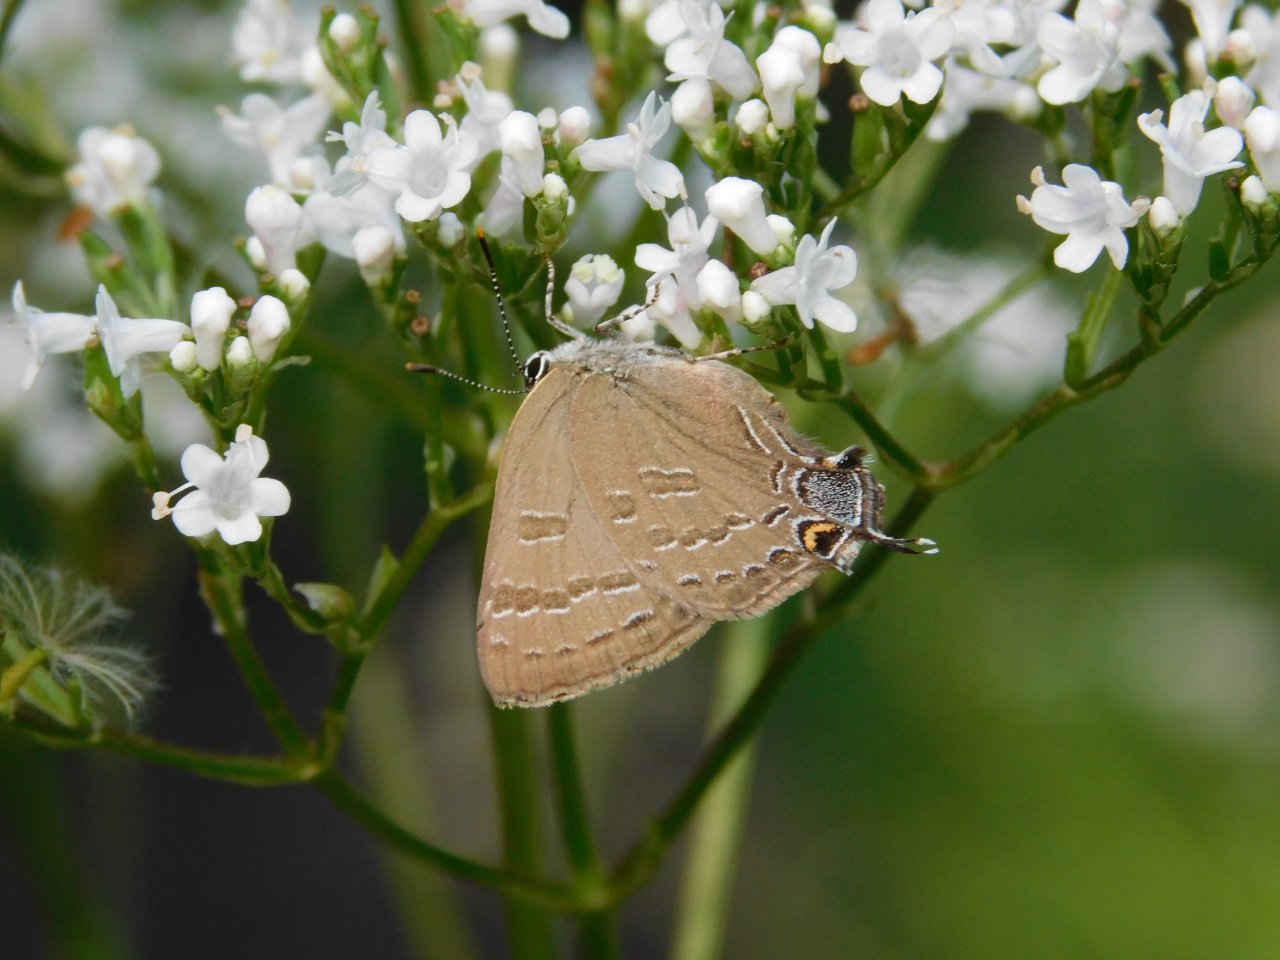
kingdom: Animalia
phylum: Arthropoda
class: Insecta
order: Lepidoptera
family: Lycaenidae
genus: Satyrium
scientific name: Satyrium calanus
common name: Banded Hairstreak
